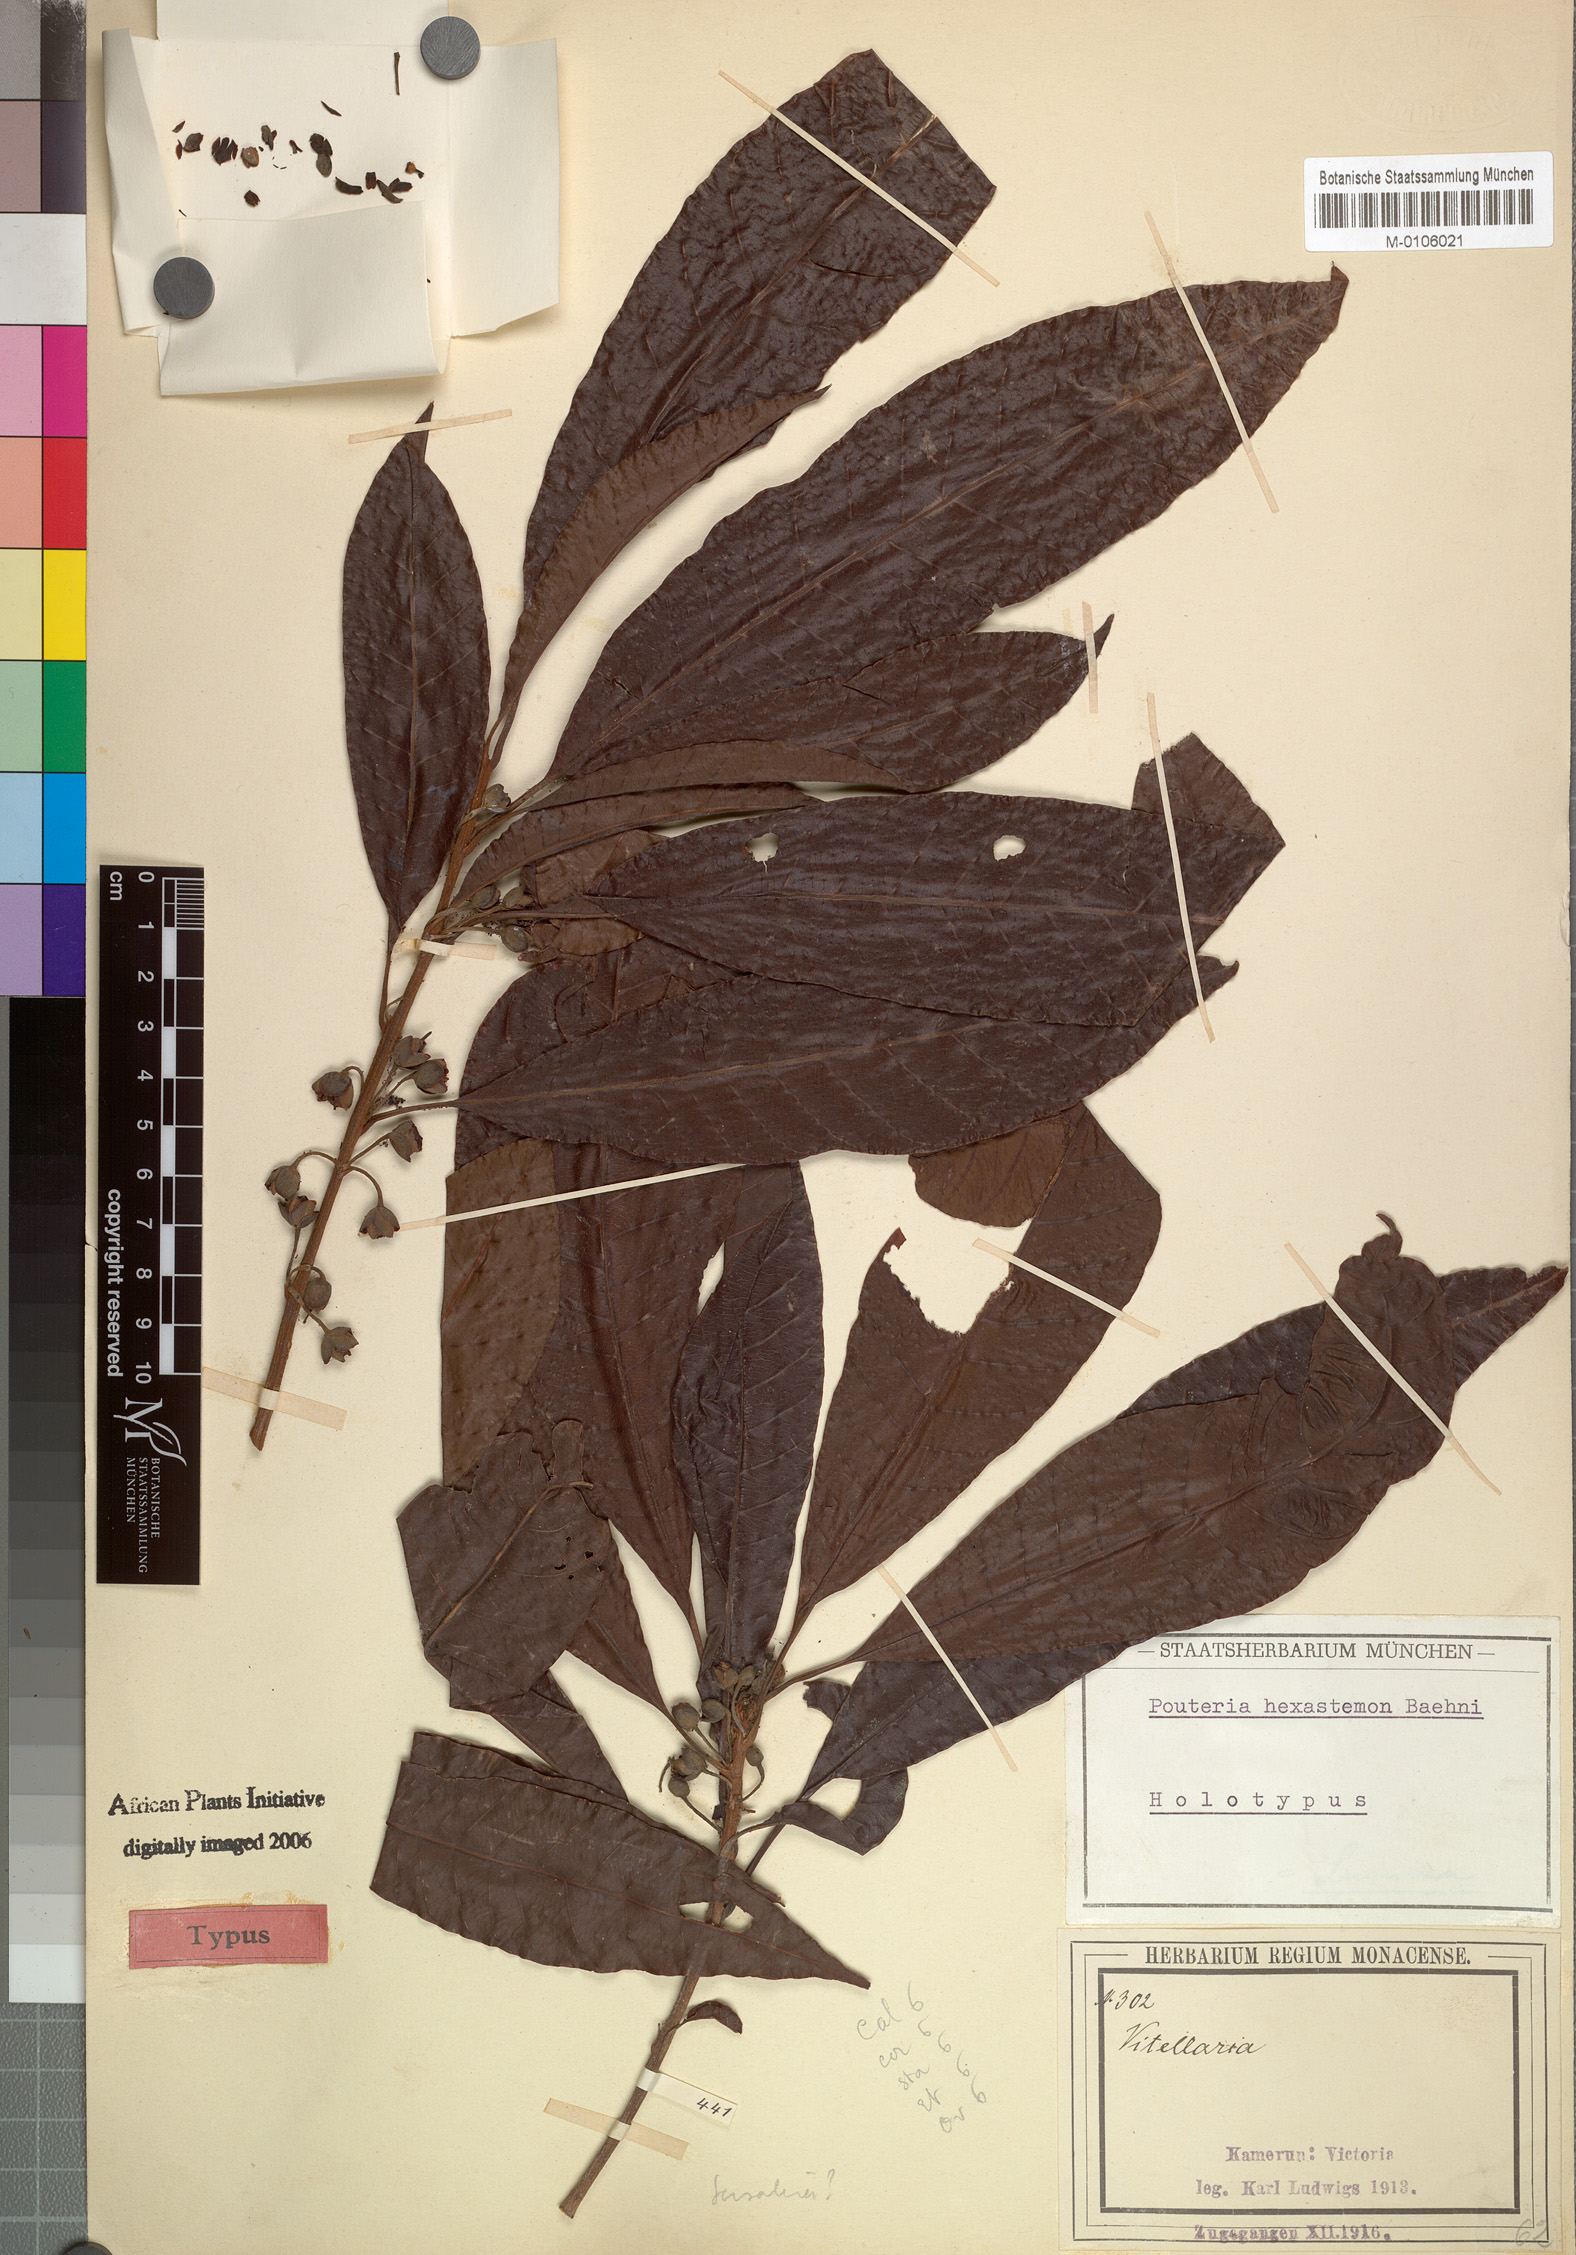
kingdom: Plantae
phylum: Tracheophyta
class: Magnoliopsida
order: Ericales
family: Sapotaceae
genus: Pouteria
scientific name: Pouteria hexastemon
